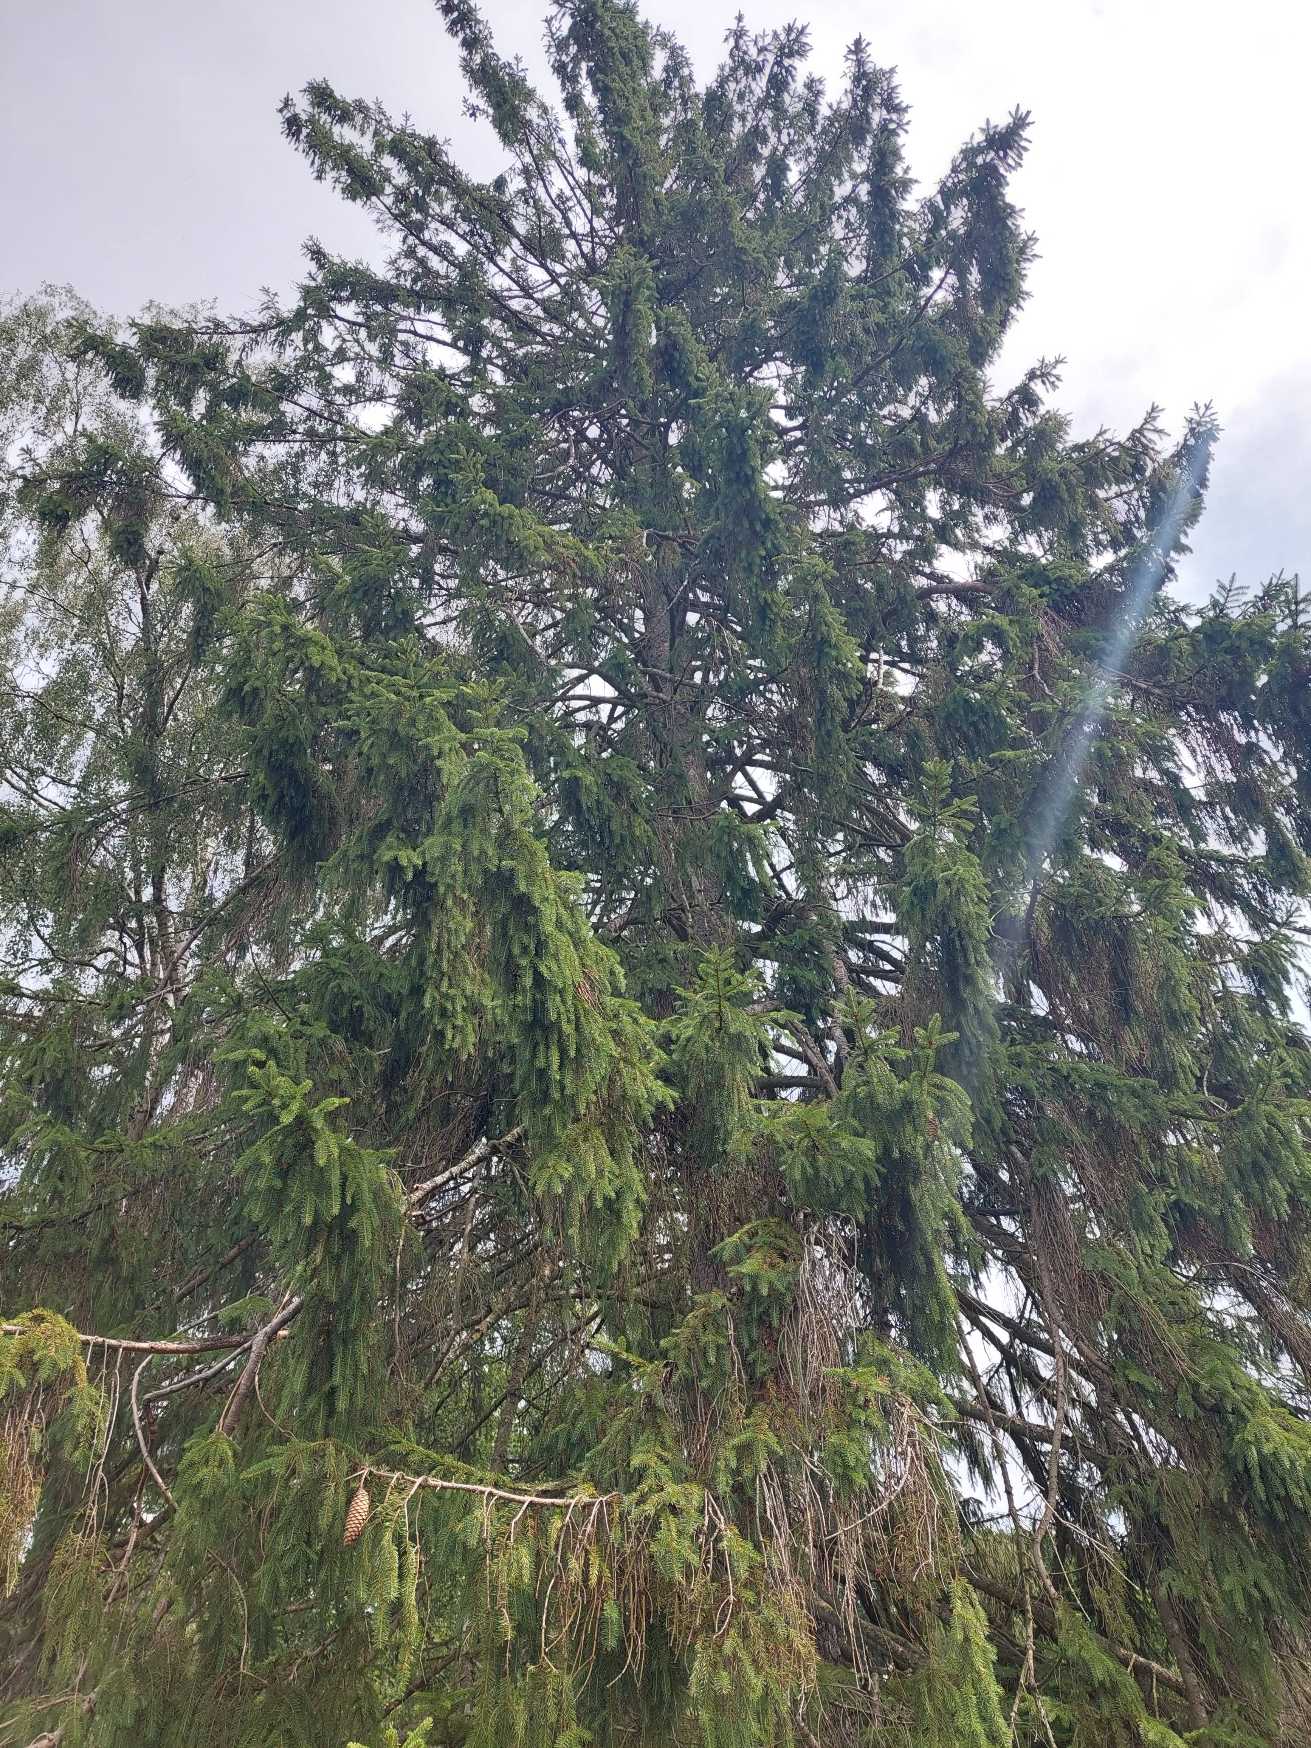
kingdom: Plantae
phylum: Tracheophyta
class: Pinopsida
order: Pinales
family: Pinaceae
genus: Picea
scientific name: Picea abies
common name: Rød-gran
